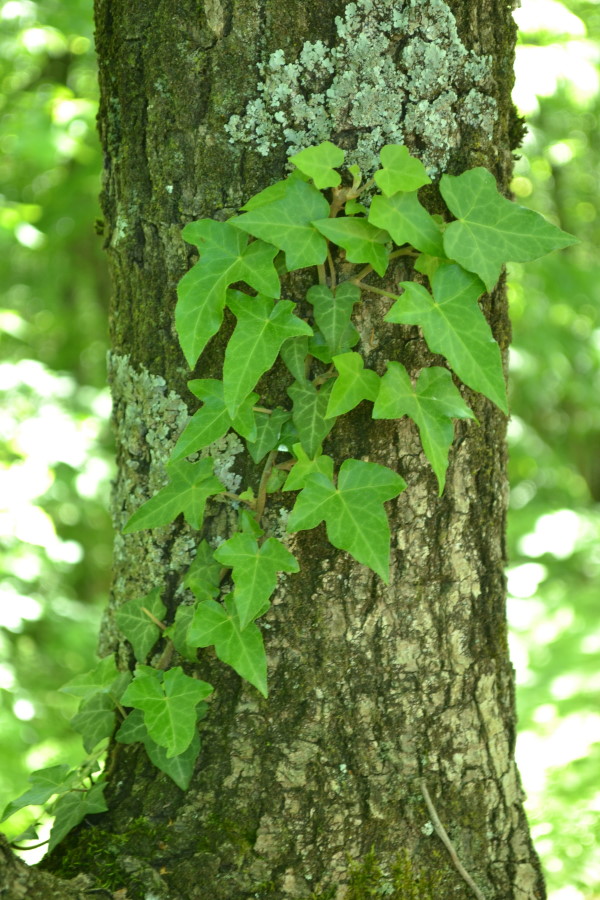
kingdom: Plantae
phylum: Tracheophyta
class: Magnoliopsida
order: Apiales
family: Araliaceae
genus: Hedera
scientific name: Hedera helix
